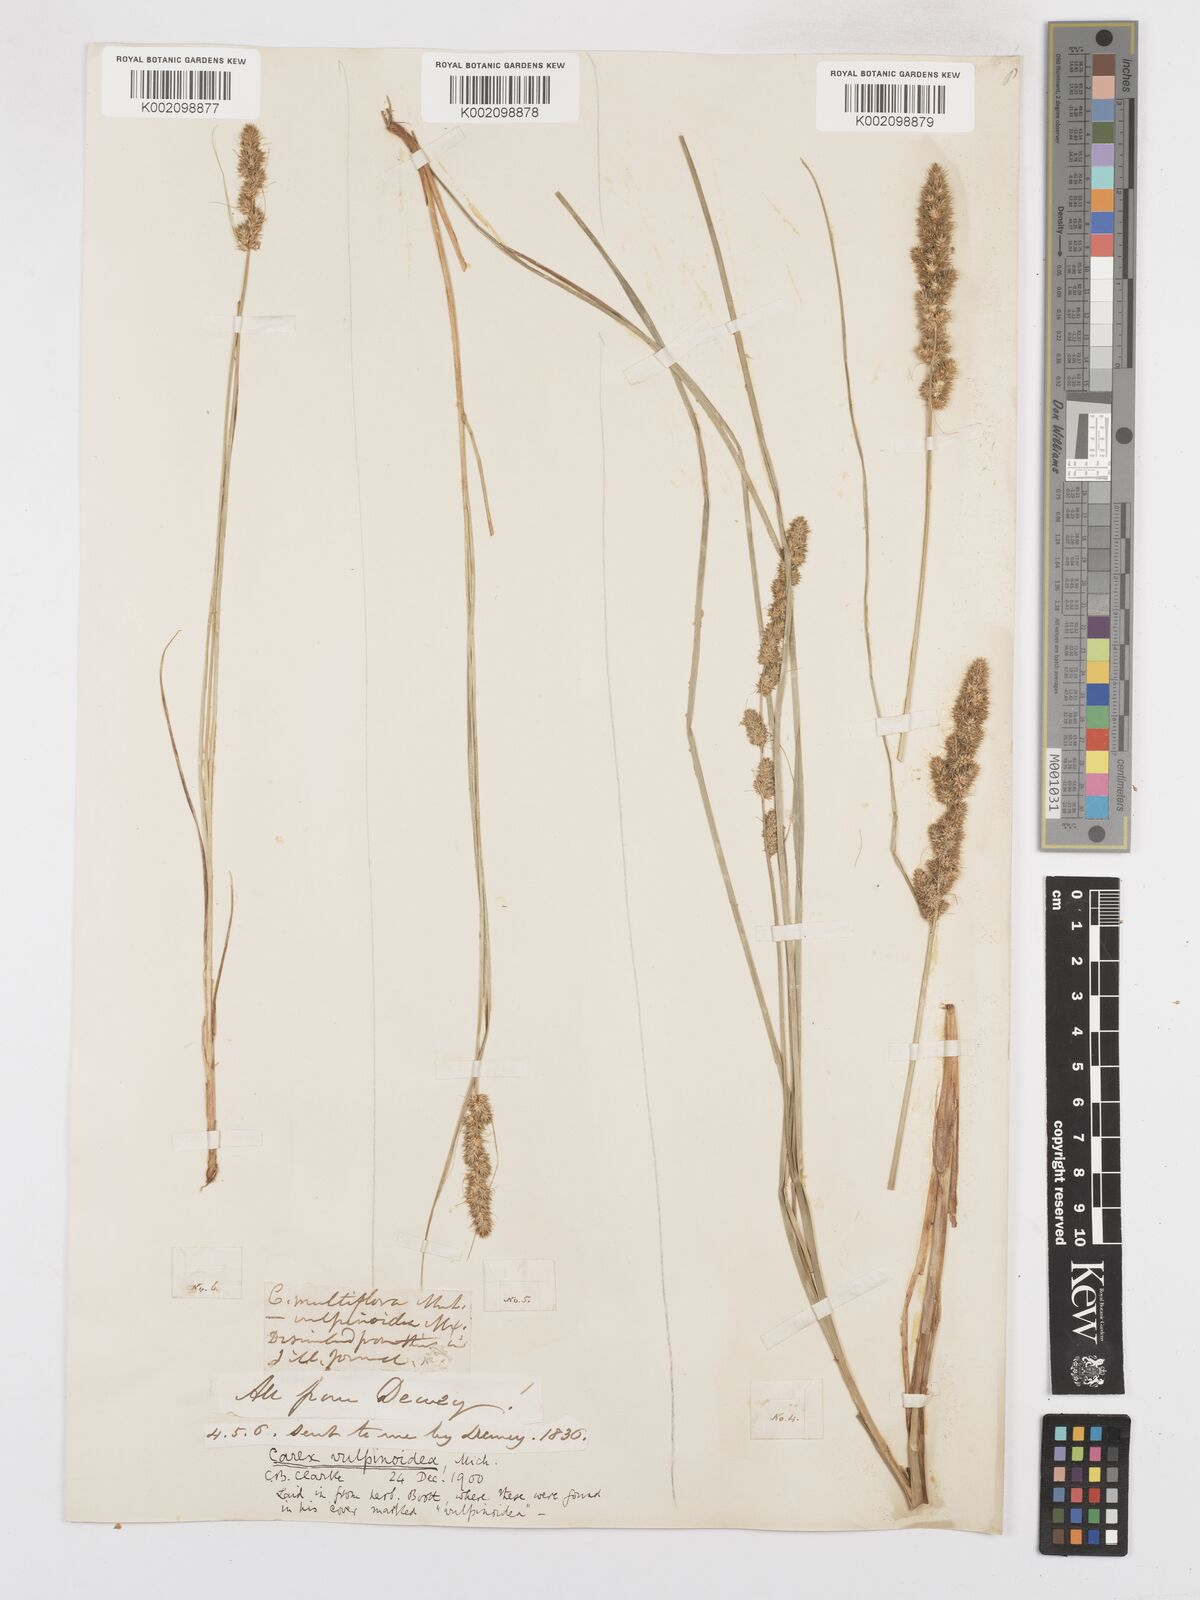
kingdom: Plantae
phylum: Tracheophyta
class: Liliopsida
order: Poales
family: Cyperaceae
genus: Carex
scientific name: Carex vulpinoidea
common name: American fox-sedge
